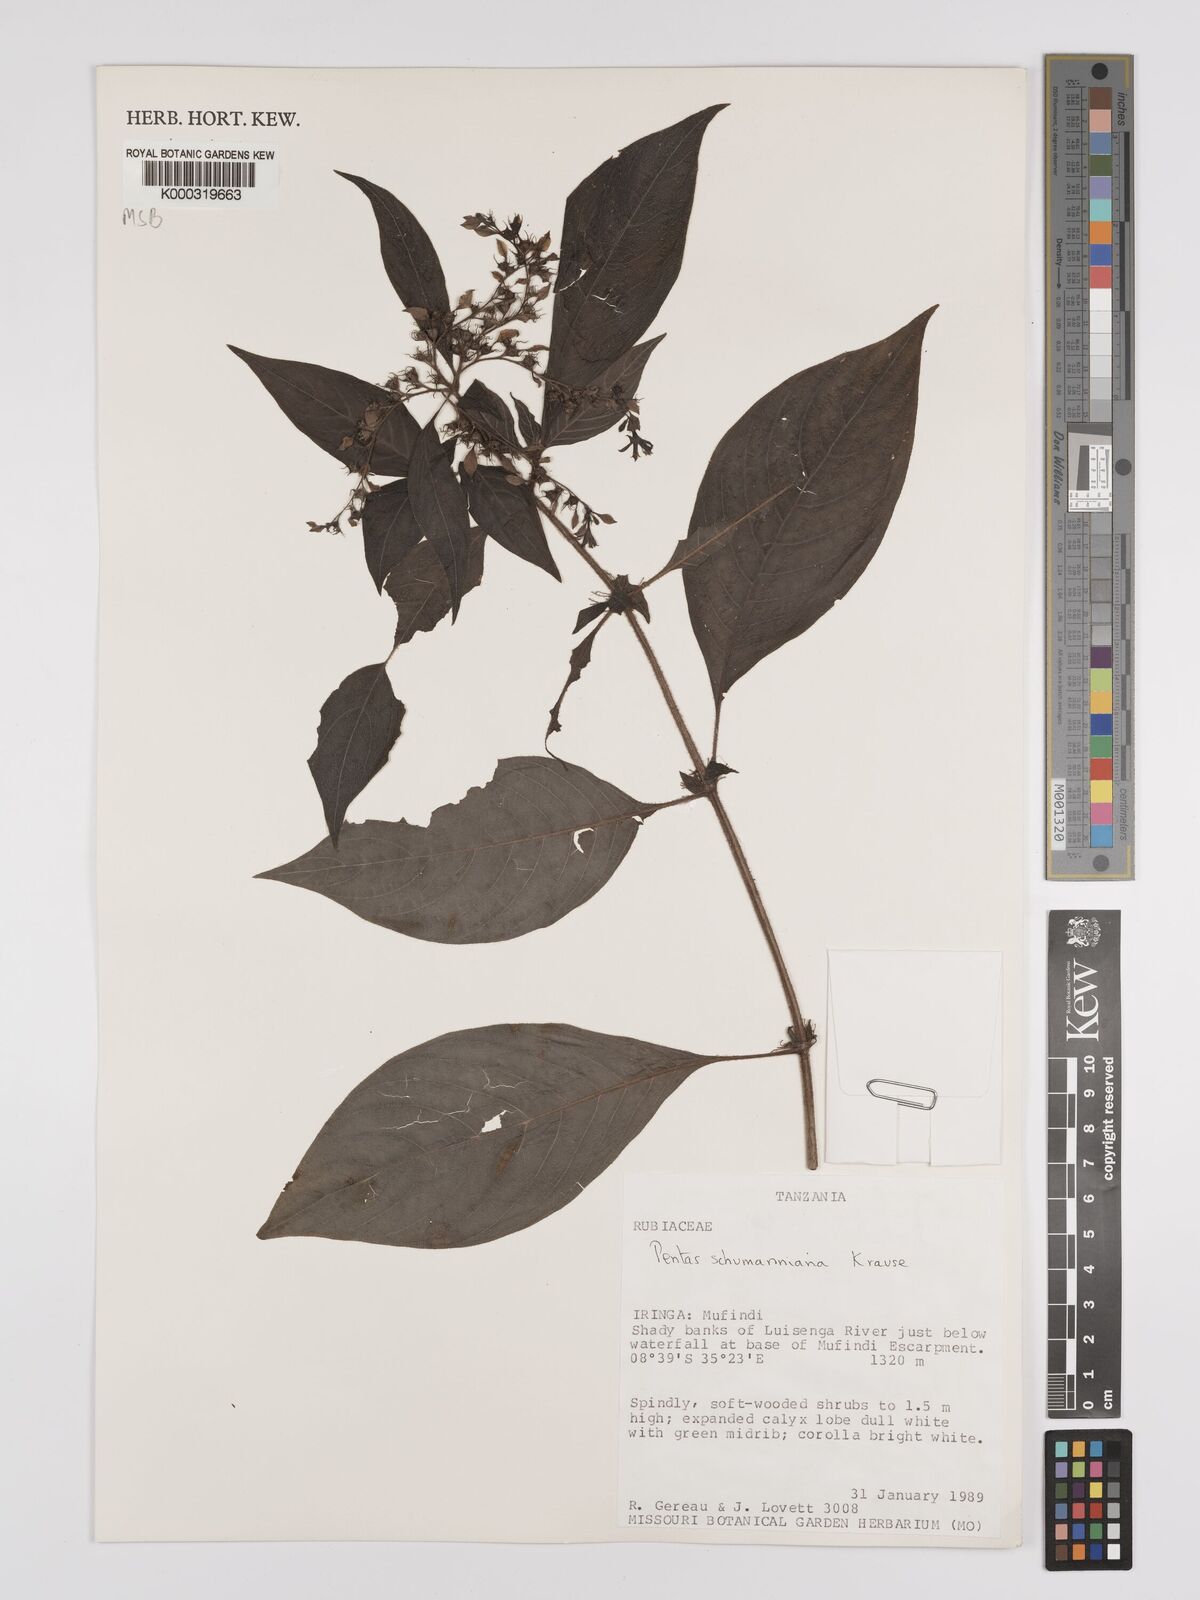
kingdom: Plantae
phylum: Tracheophyta
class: Magnoliopsida
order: Gentianales
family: Rubiaceae
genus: Phyllopentas
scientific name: Phyllopentas schumanniana
